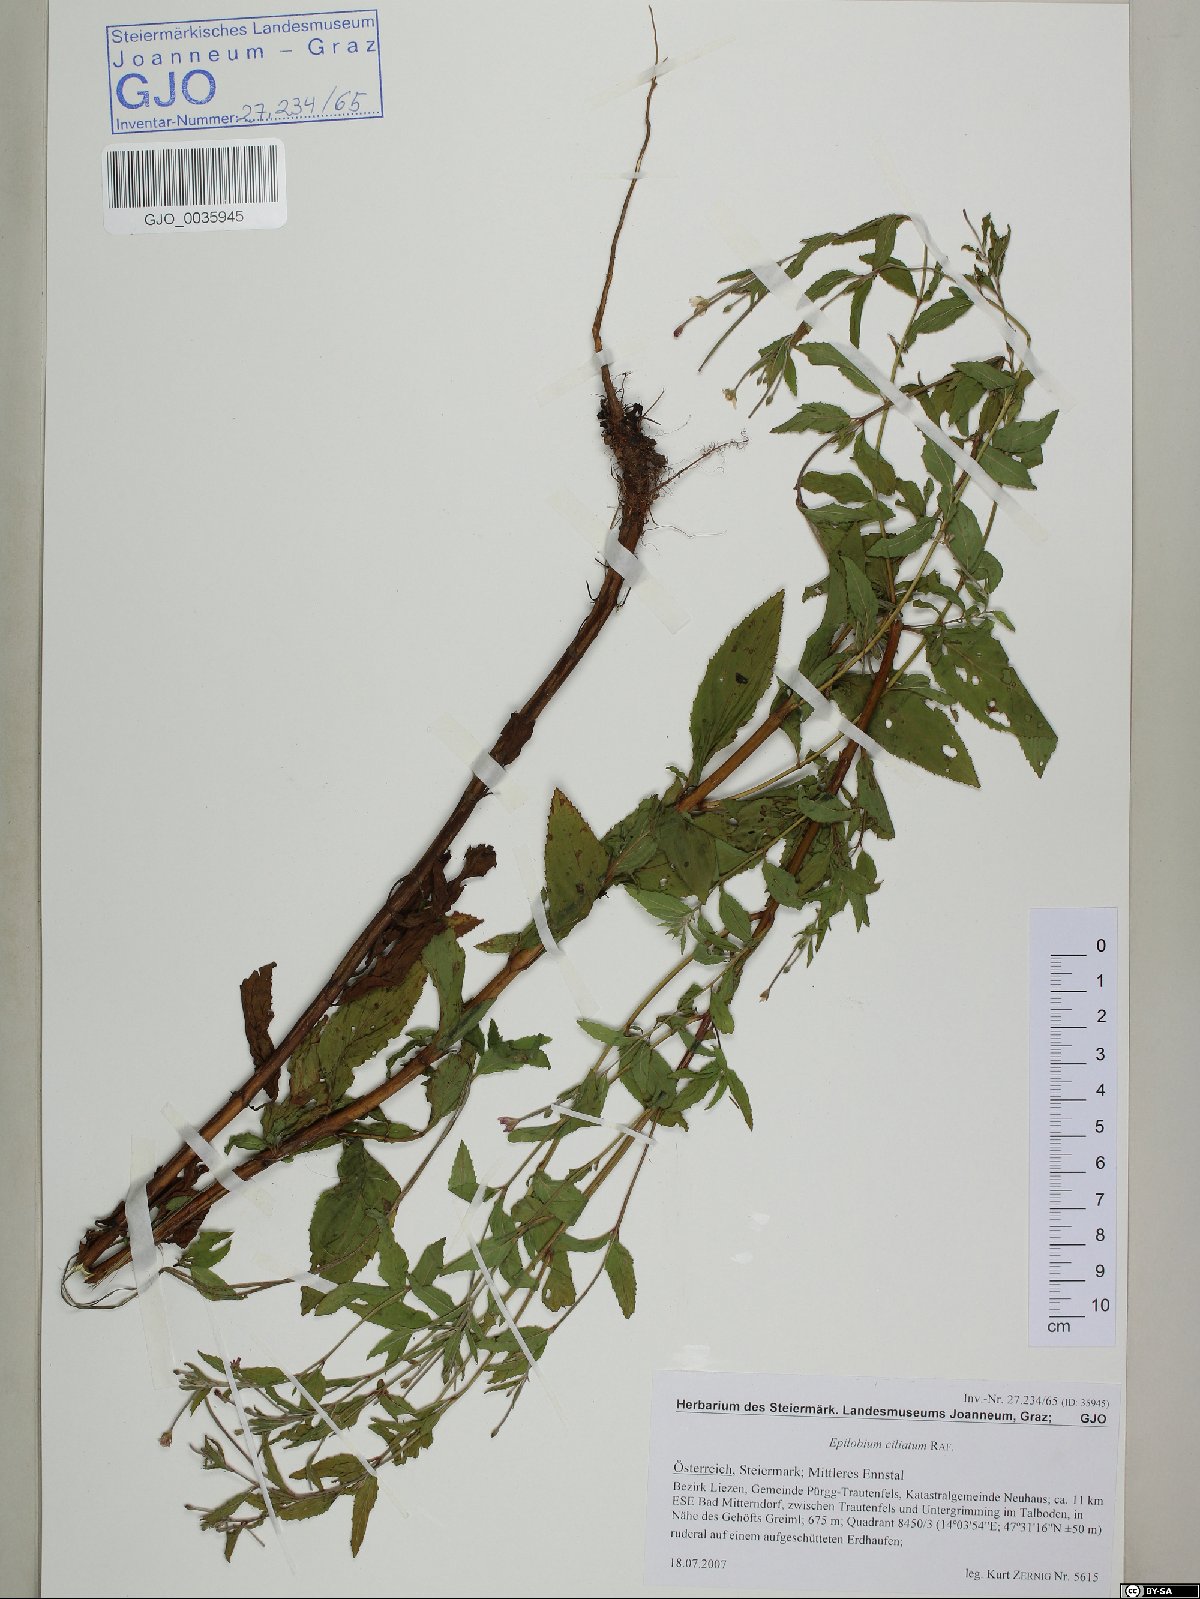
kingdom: Plantae
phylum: Tracheophyta
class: Magnoliopsida
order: Myrtales
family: Onagraceae
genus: Epilobium
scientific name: Epilobium ciliatum
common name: American willowherb
